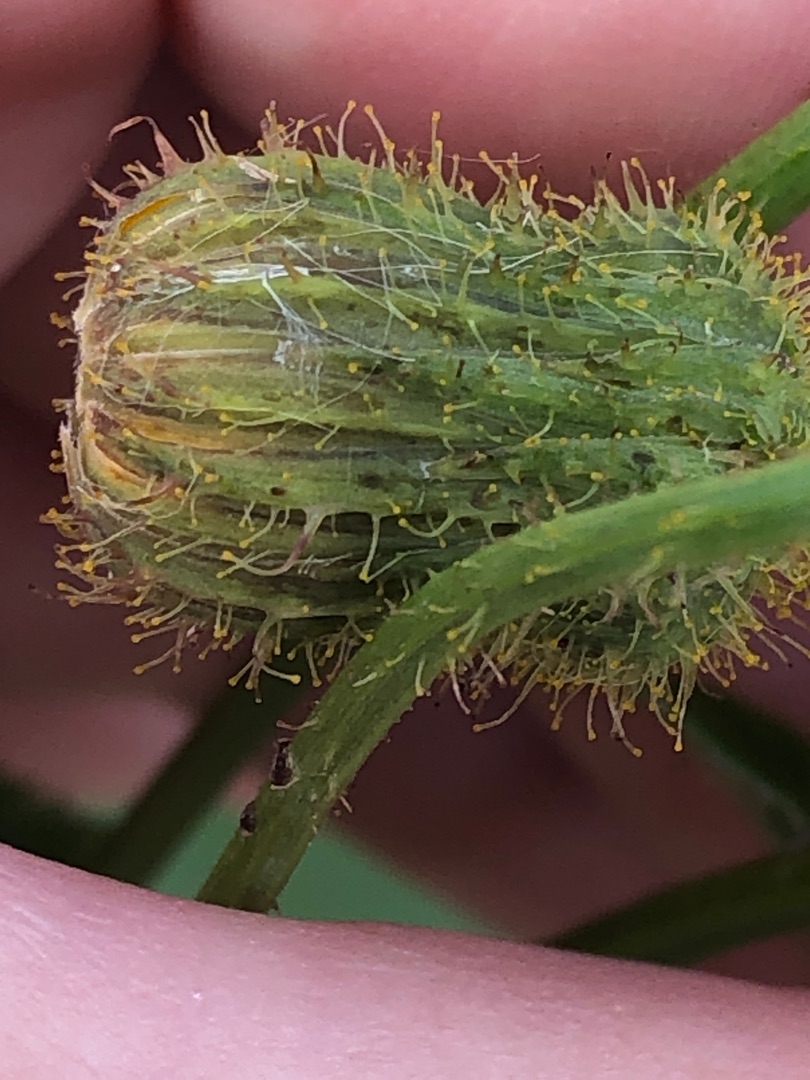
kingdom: Plantae
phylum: Tracheophyta
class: Magnoliopsida
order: Asterales
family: Asteraceae
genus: Sonchus
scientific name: Sonchus arvensis
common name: Ager-svinemælk
